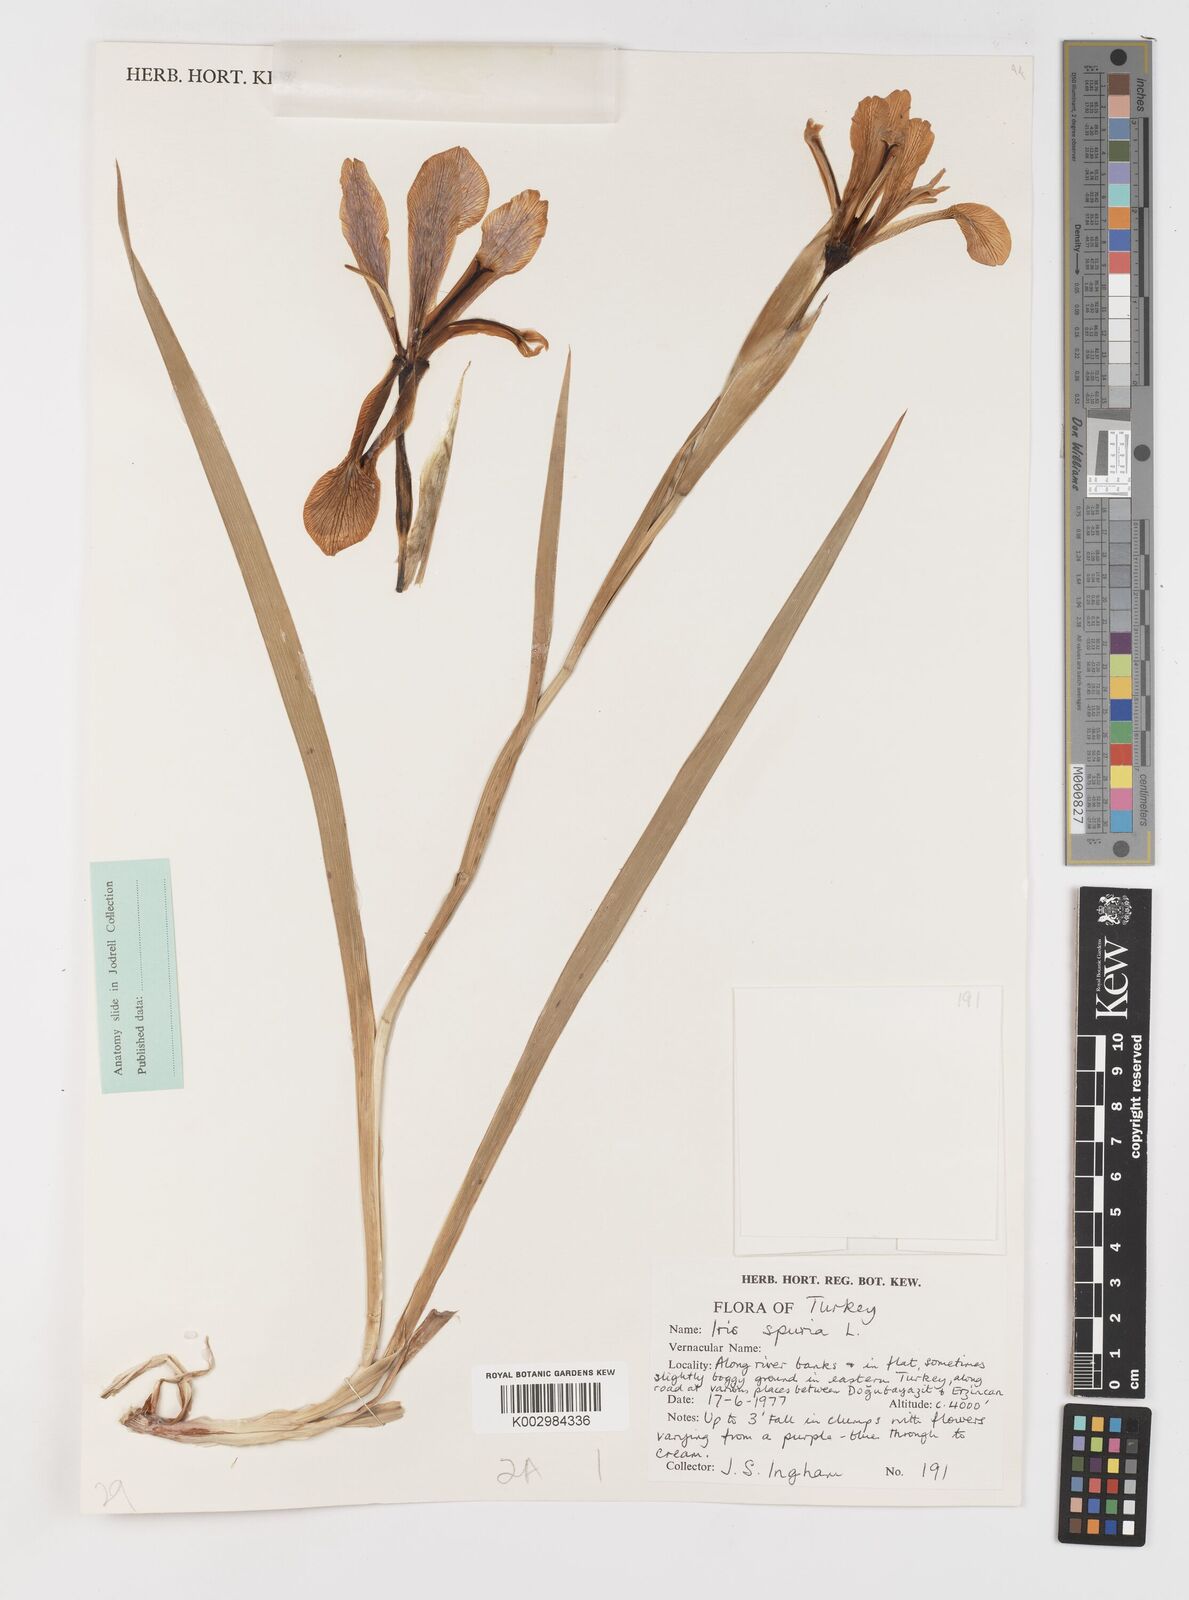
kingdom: Plantae
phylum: Tracheophyta
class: Liliopsida
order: Asparagales
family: Iridaceae
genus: Iris
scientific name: Iris spuria
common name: Blue iris
